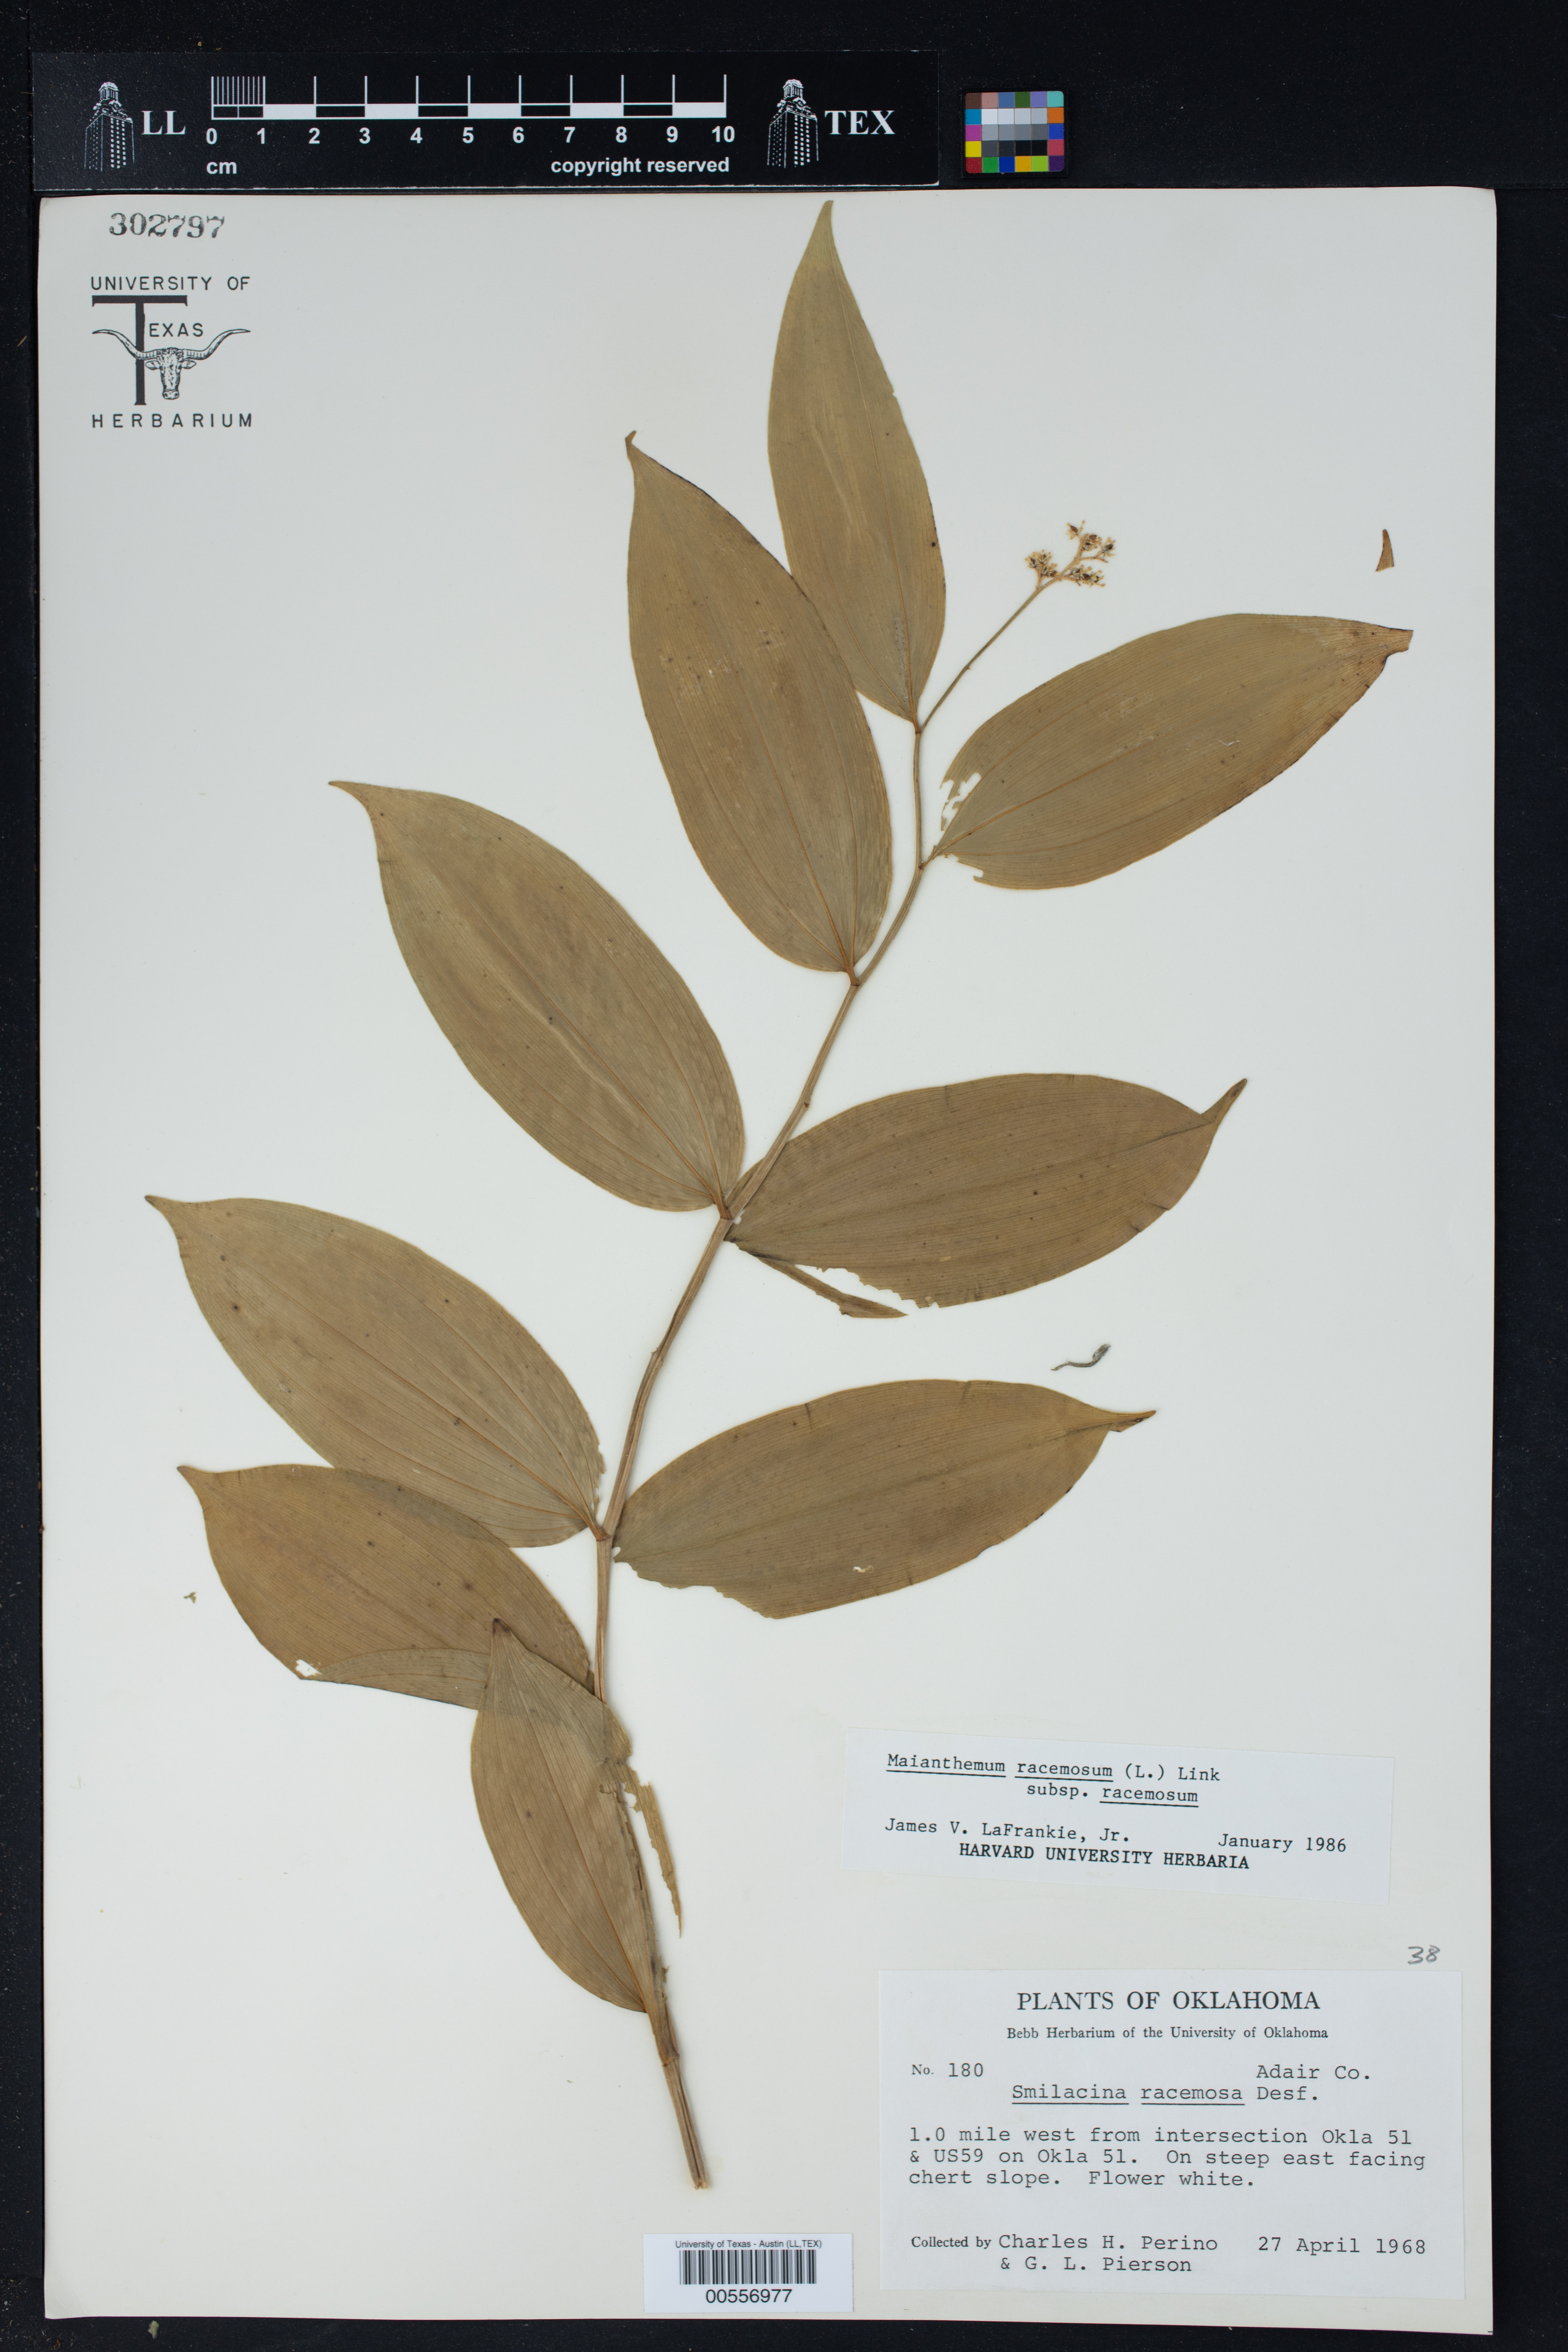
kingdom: Plantae
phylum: Tracheophyta
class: Liliopsida
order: Asparagales
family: Asparagaceae
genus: Maianthemum
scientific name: Maianthemum racemosum
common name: False spikenard
